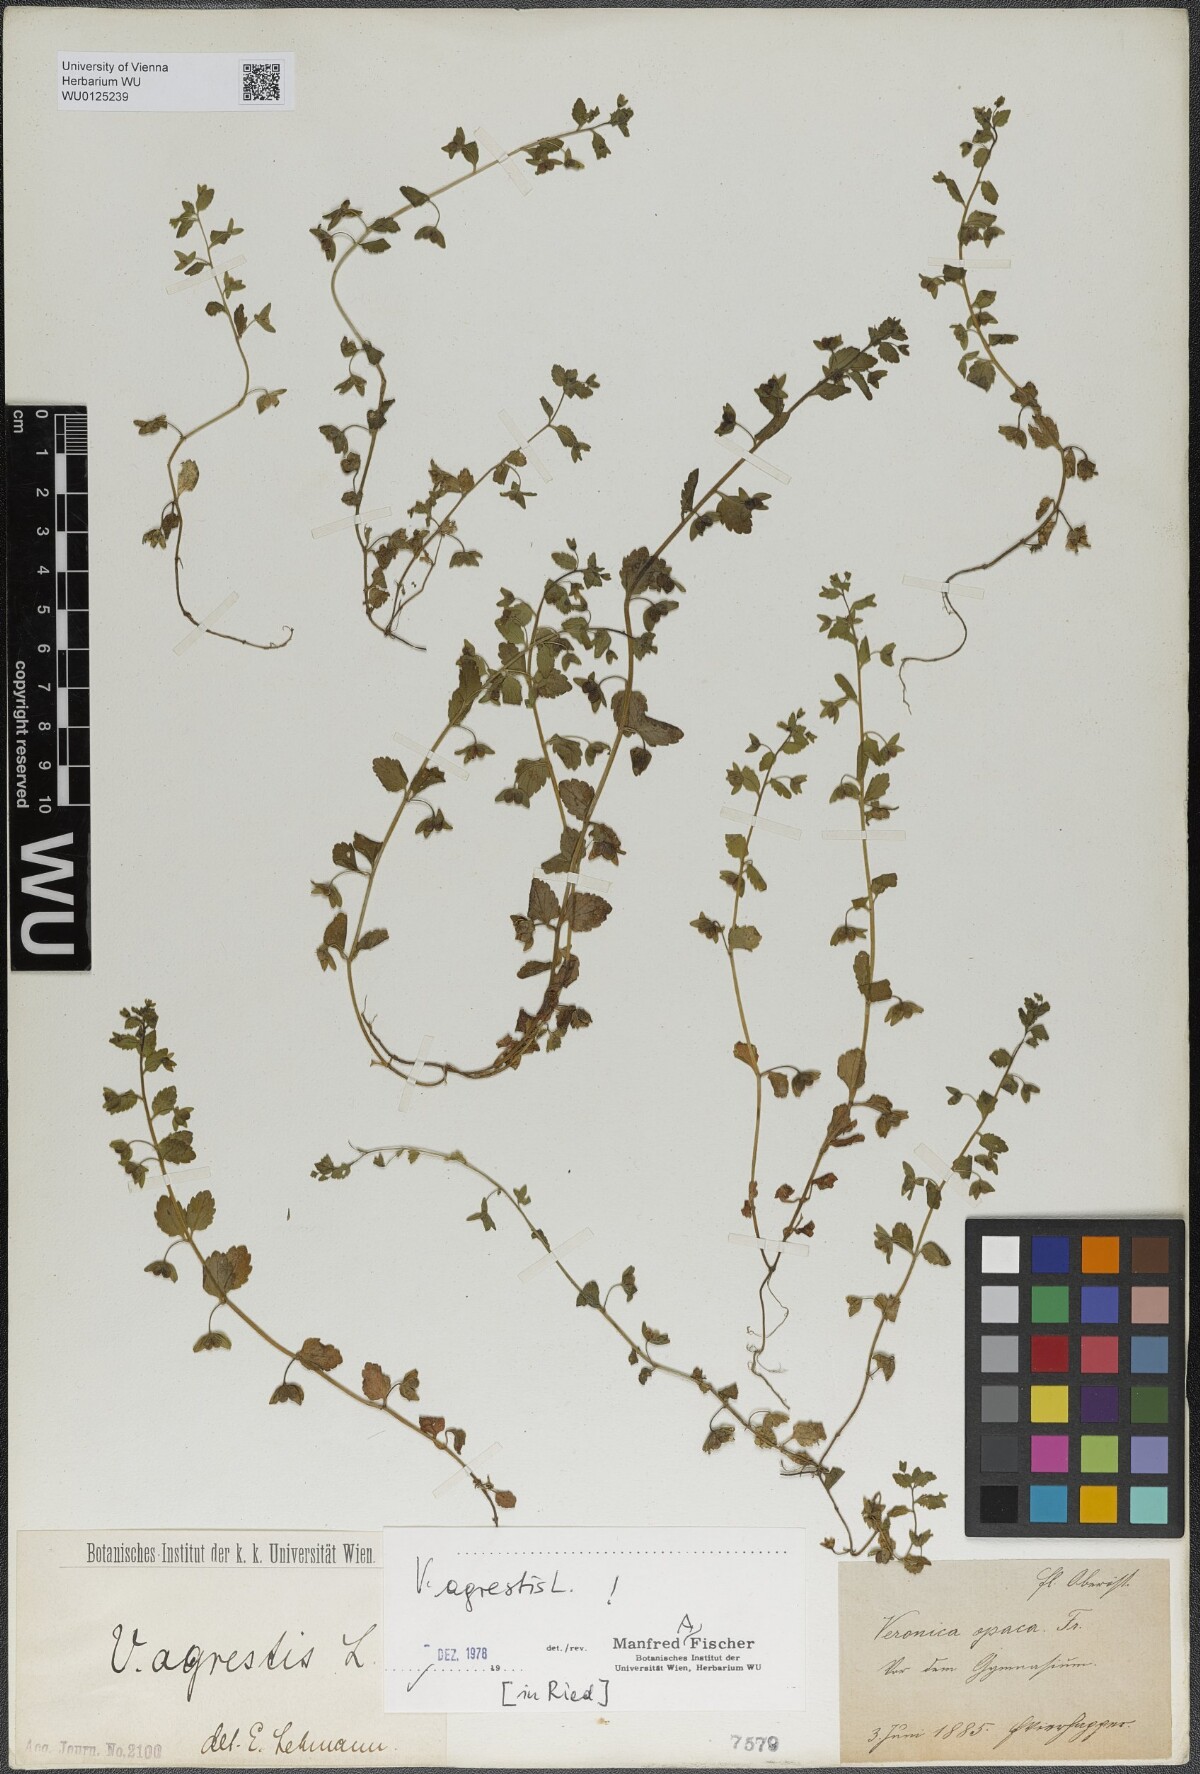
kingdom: Plantae
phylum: Tracheophyta
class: Magnoliopsida
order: Lamiales
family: Plantaginaceae
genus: Veronica
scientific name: Veronica agrestis
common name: Green field-speedwell
